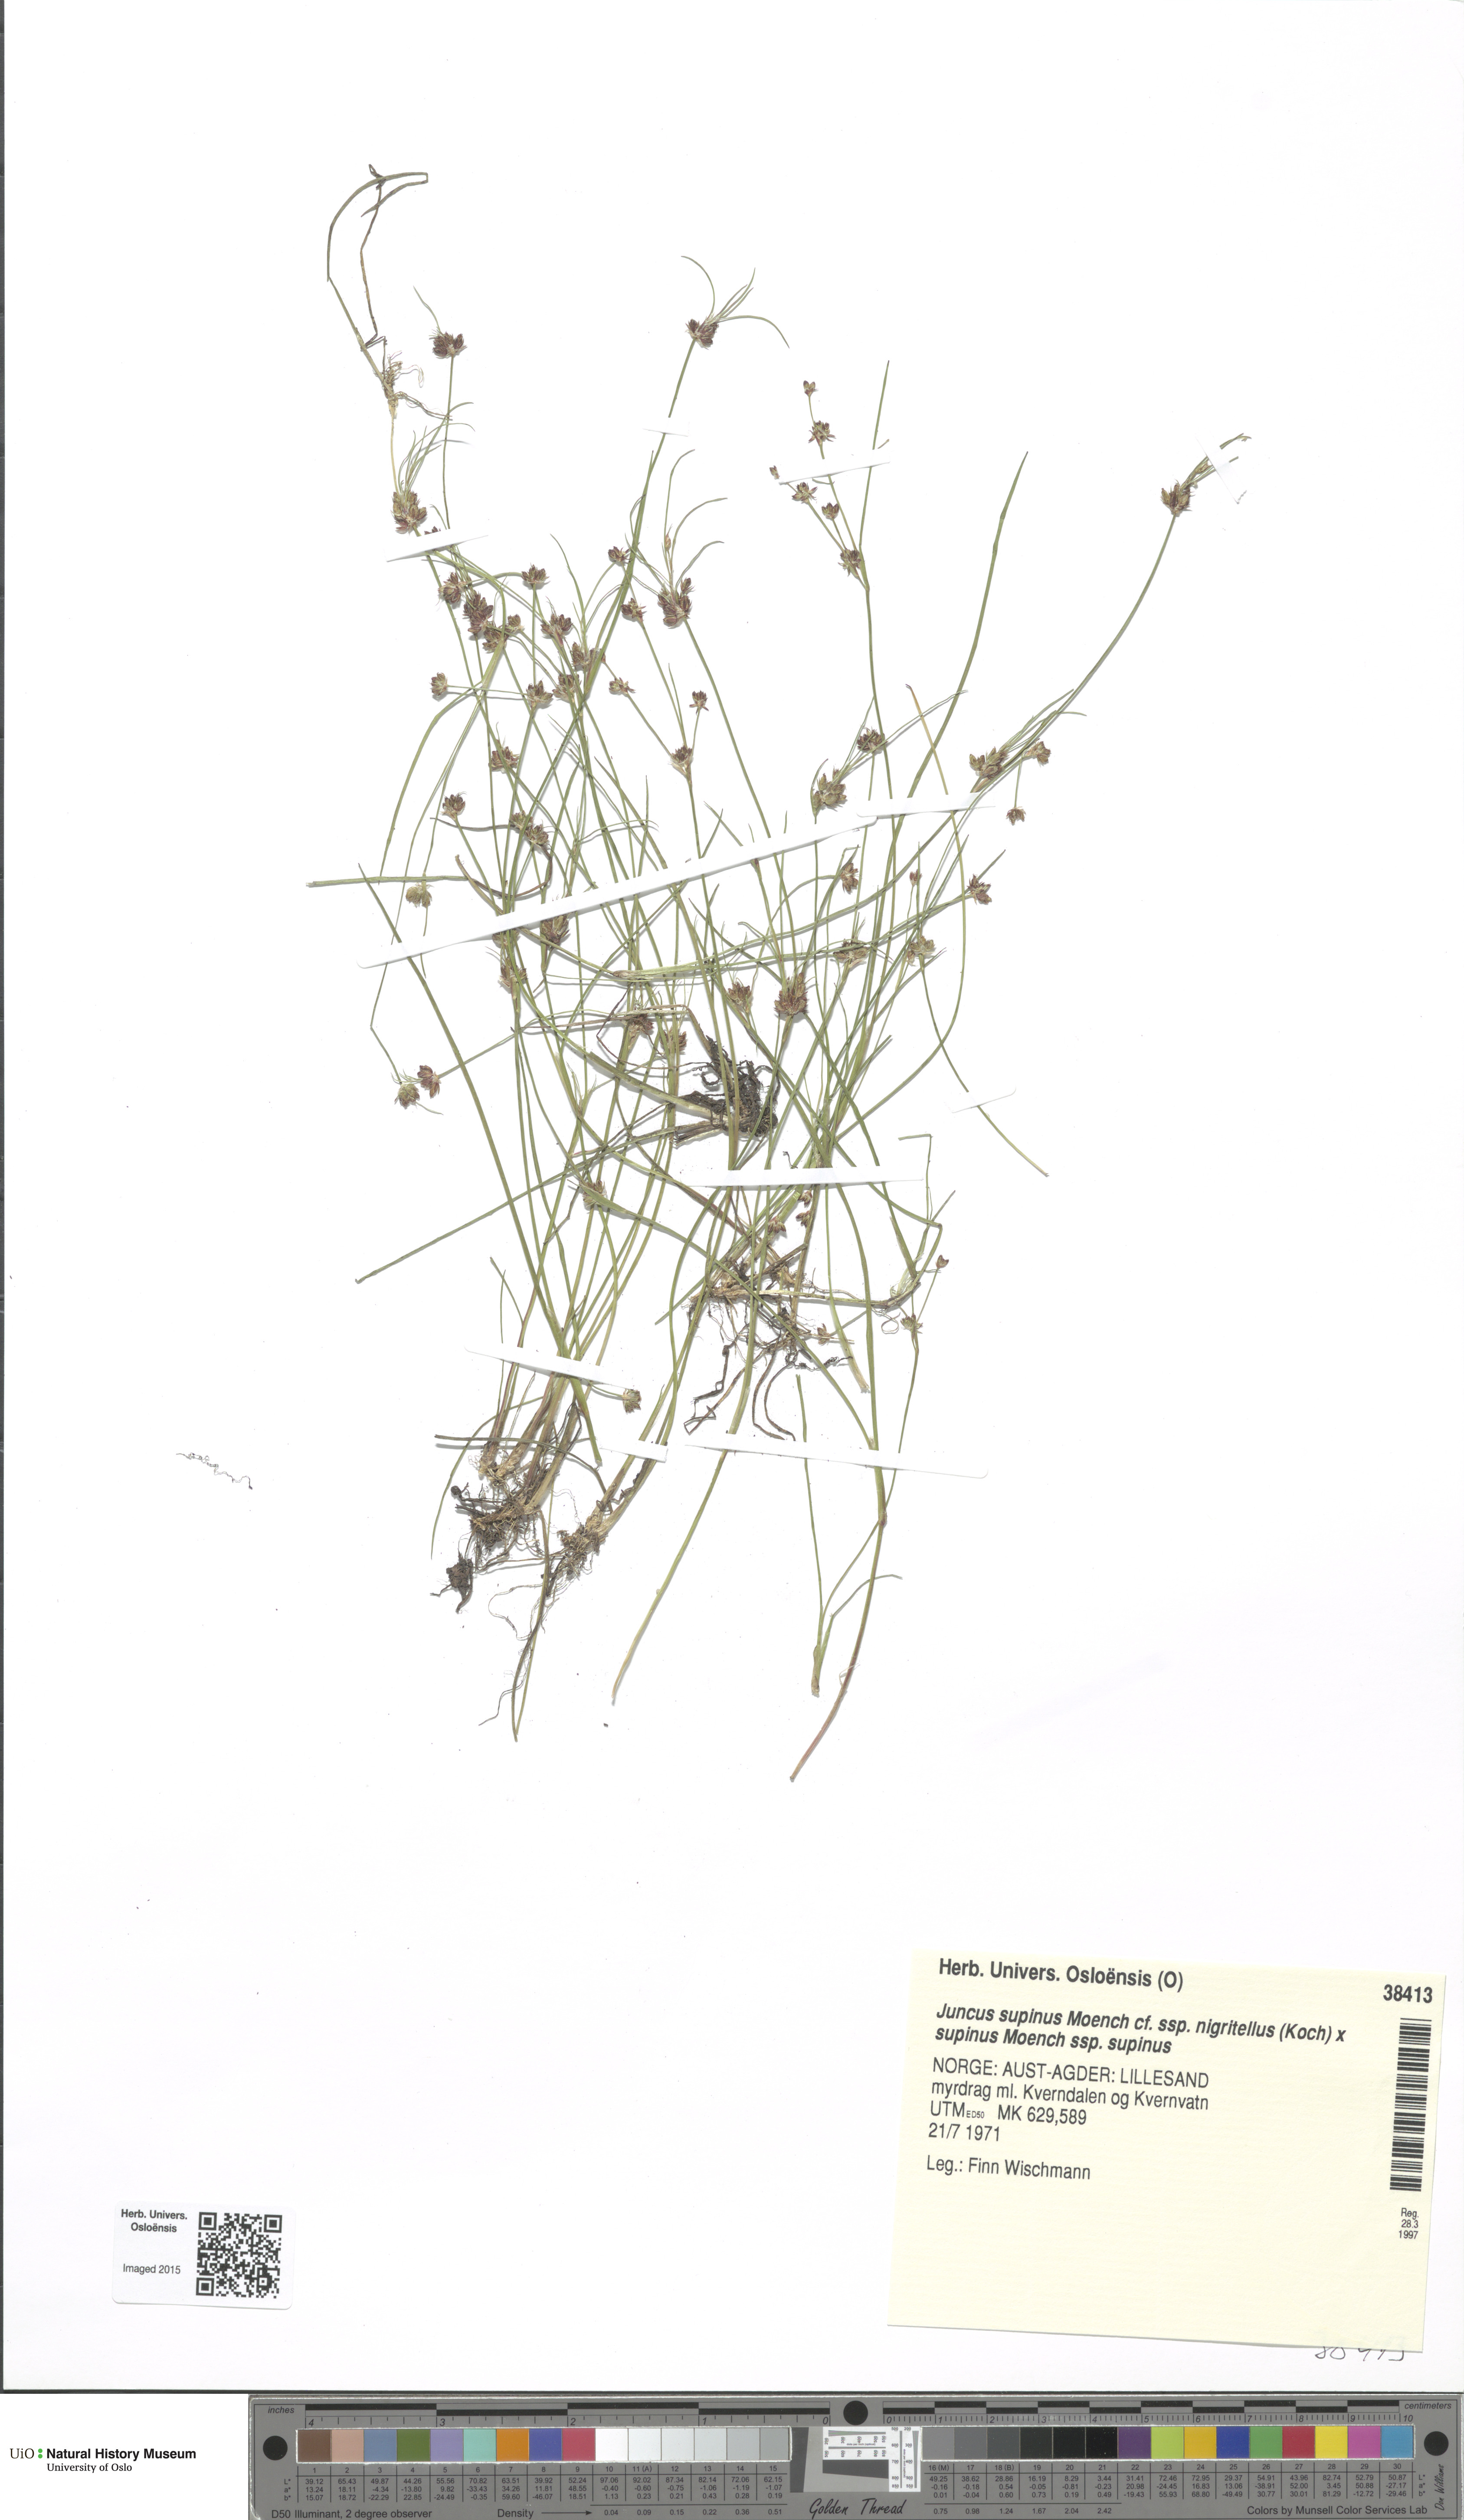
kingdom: Plantae
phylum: Tracheophyta
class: Liliopsida
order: Poales
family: Juncaceae
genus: Juncus
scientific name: Juncus
